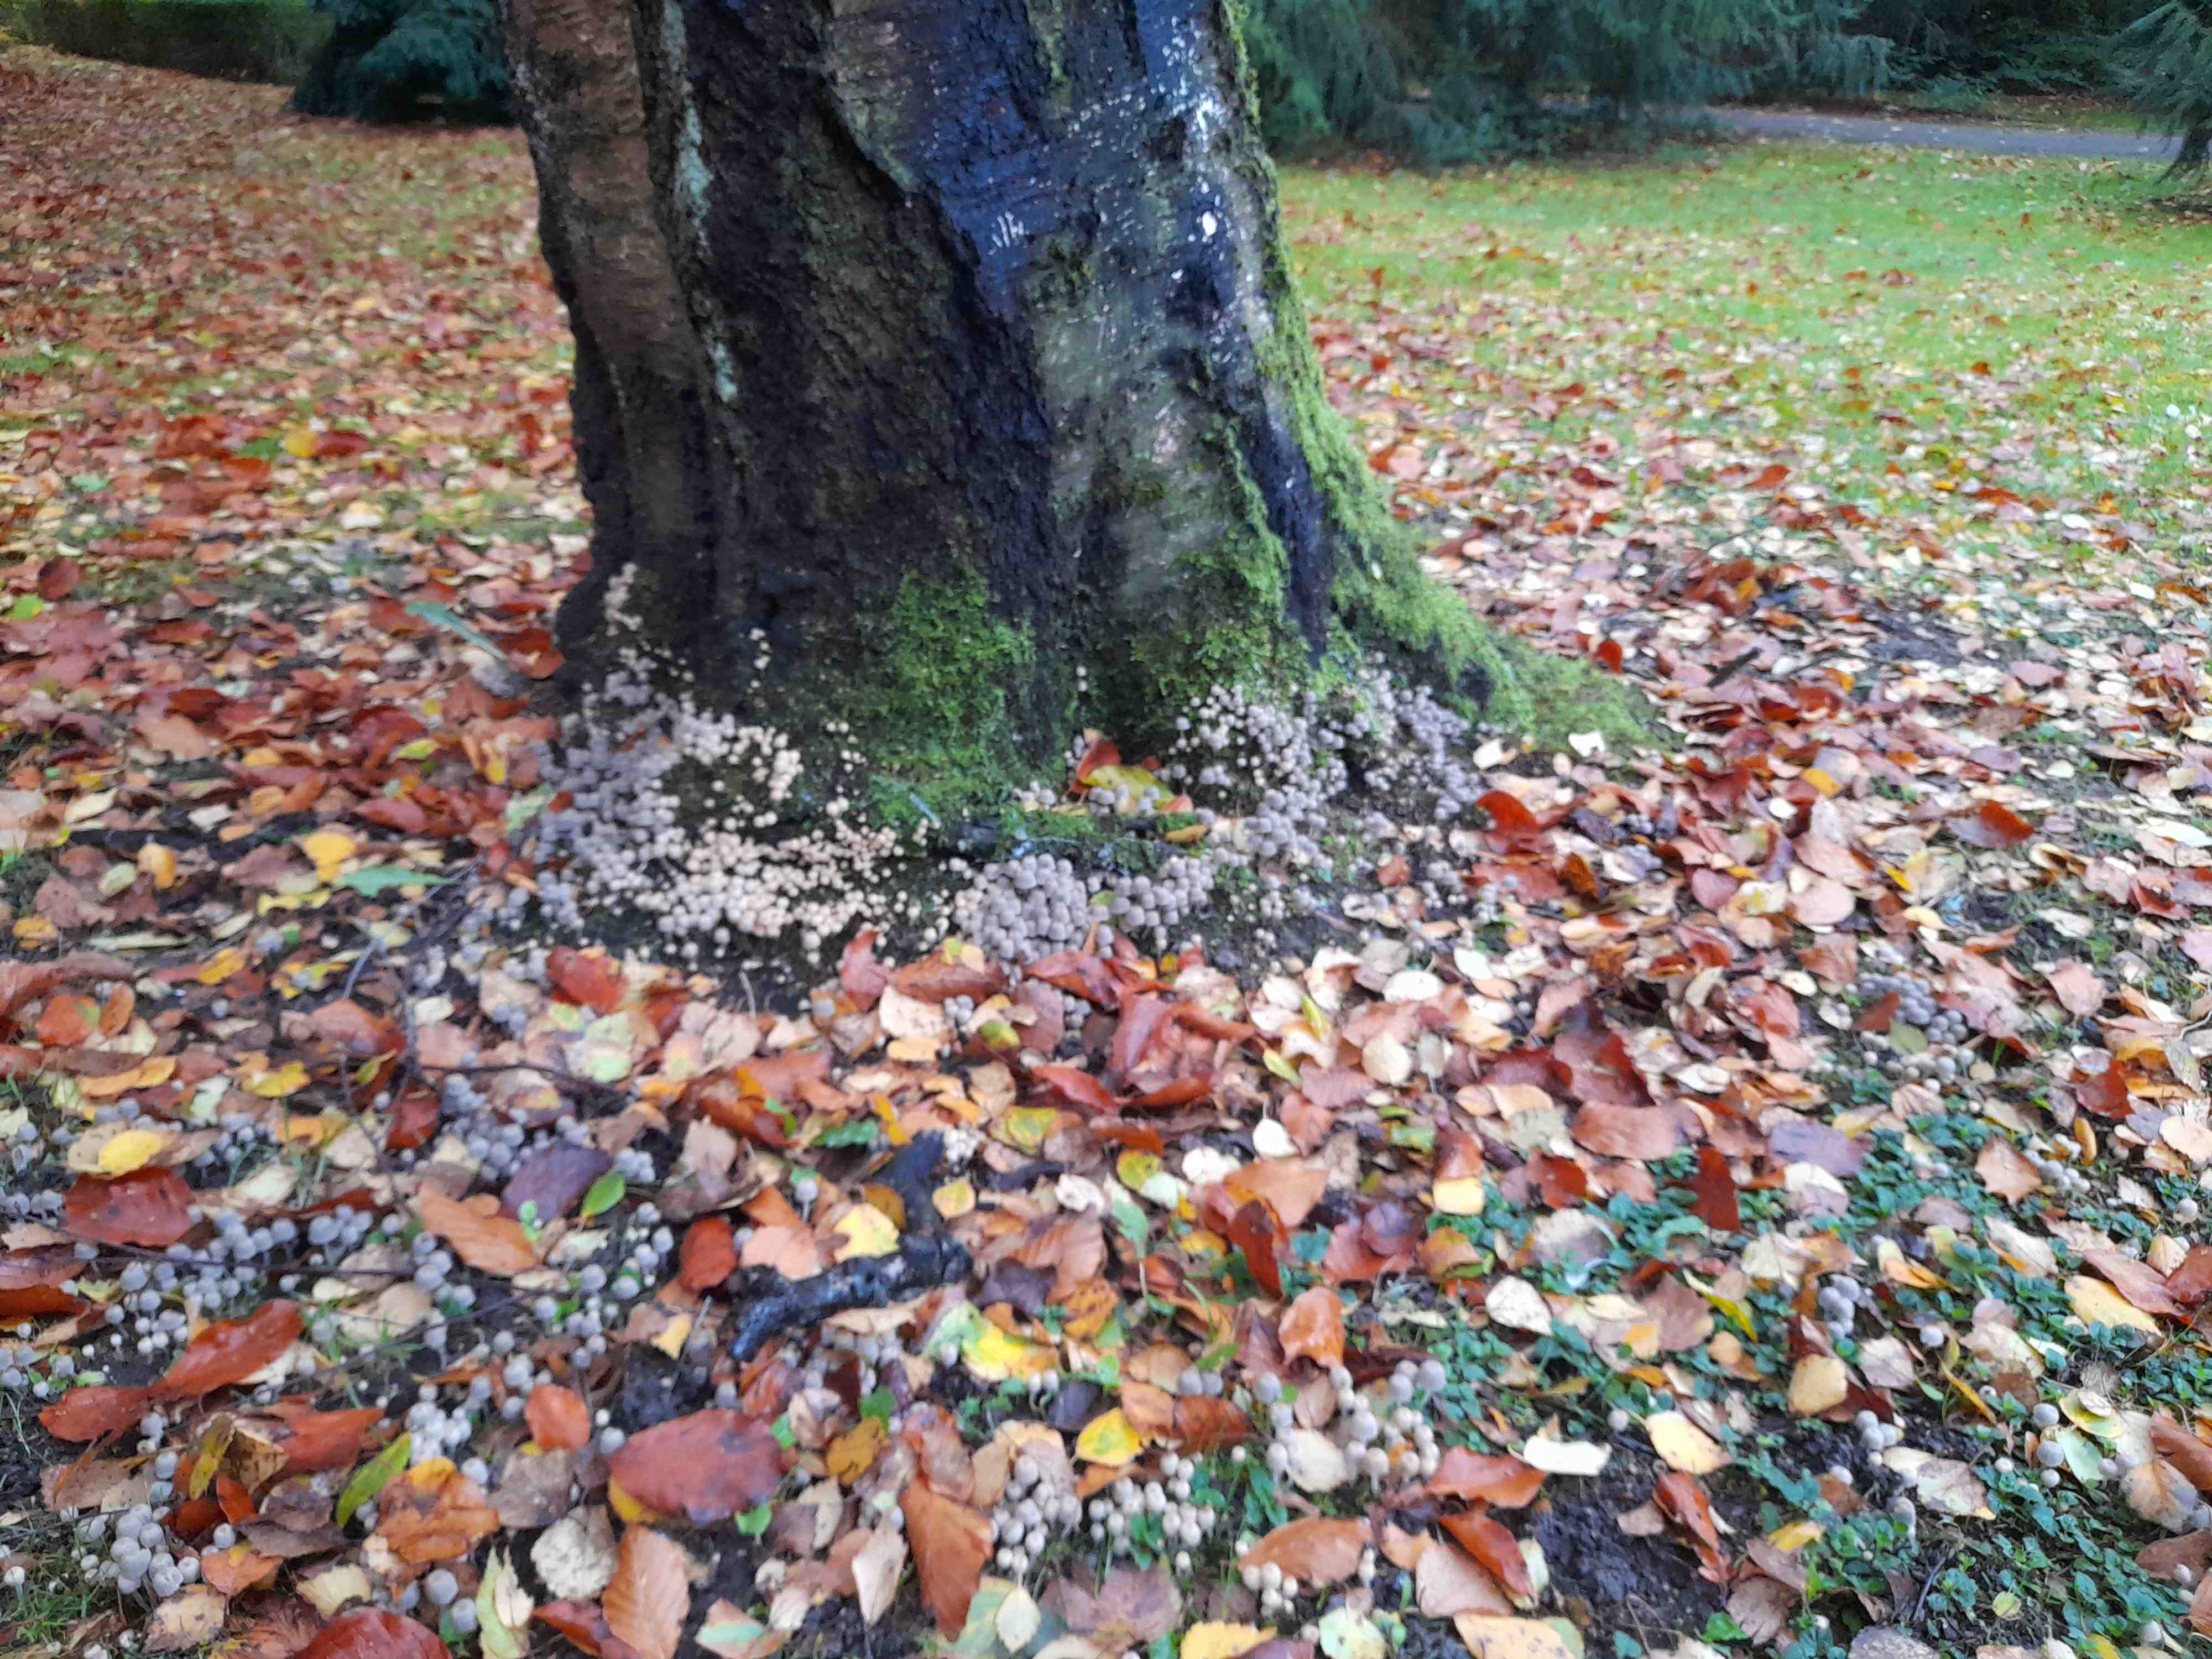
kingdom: Fungi
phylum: Basidiomycota
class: Agaricomycetes
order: Agaricales
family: Psathyrellaceae
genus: Coprinellus
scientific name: Coprinellus disseminatus
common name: bredsået blækhat
